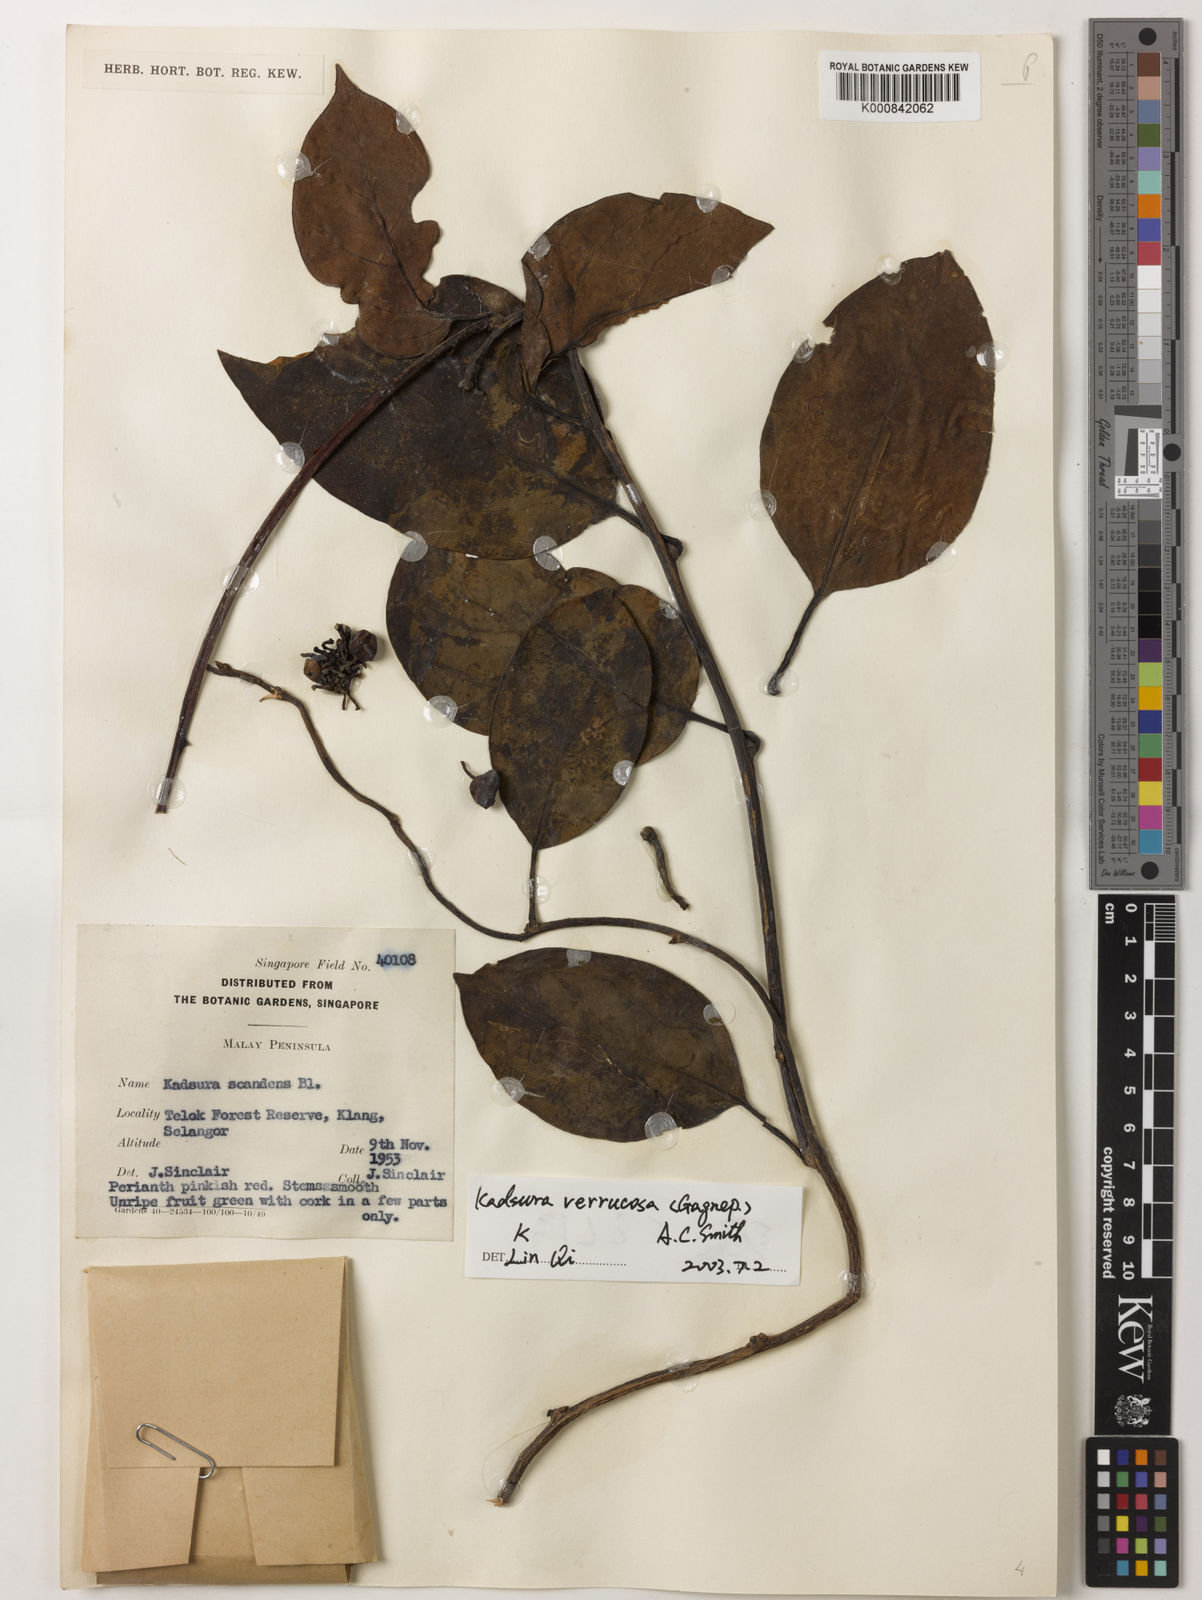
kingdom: Plantae
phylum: Tracheophyta
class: Magnoliopsida
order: Austrobaileyales
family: Schisandraceae
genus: Kadsura
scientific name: Kadsura verrucosa
